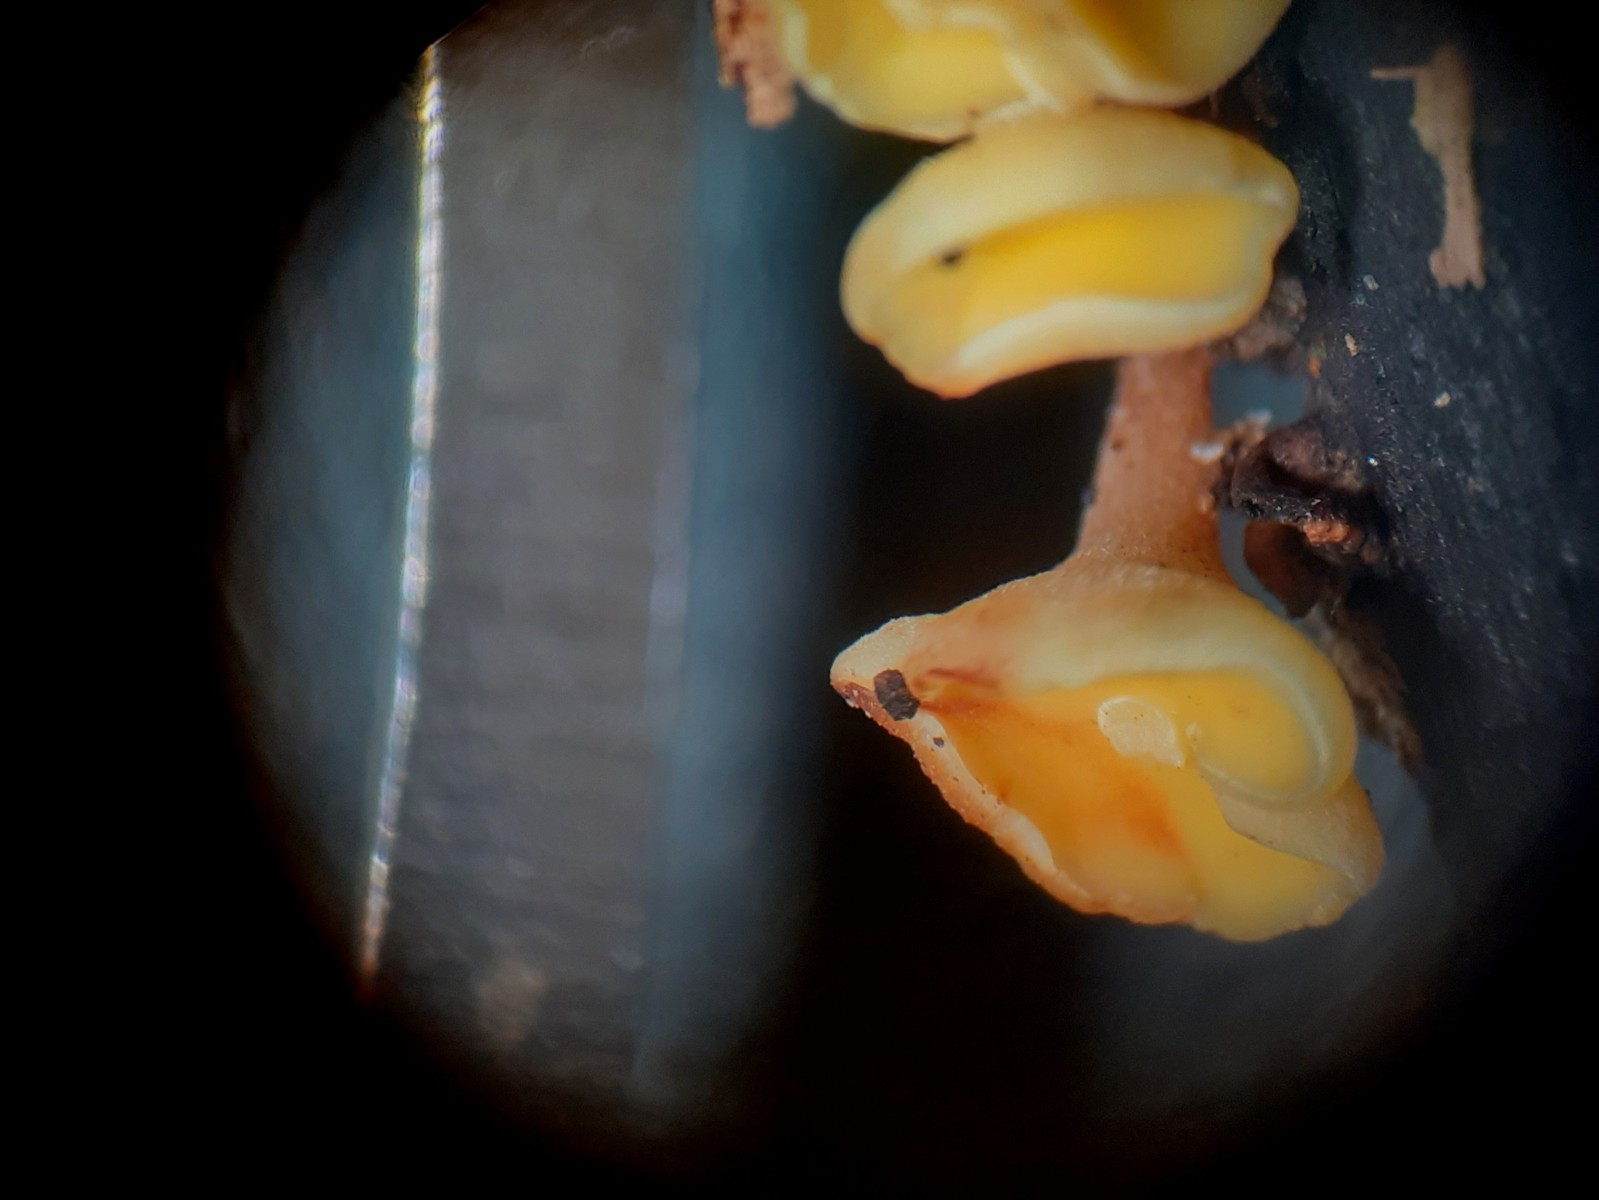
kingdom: Fungi
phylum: Ascomycota
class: Leotiomycetes
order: Helotiales
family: Helotiaceae
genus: Hymenoscyphus
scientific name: Hymenoscyphus
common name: stilkskive
